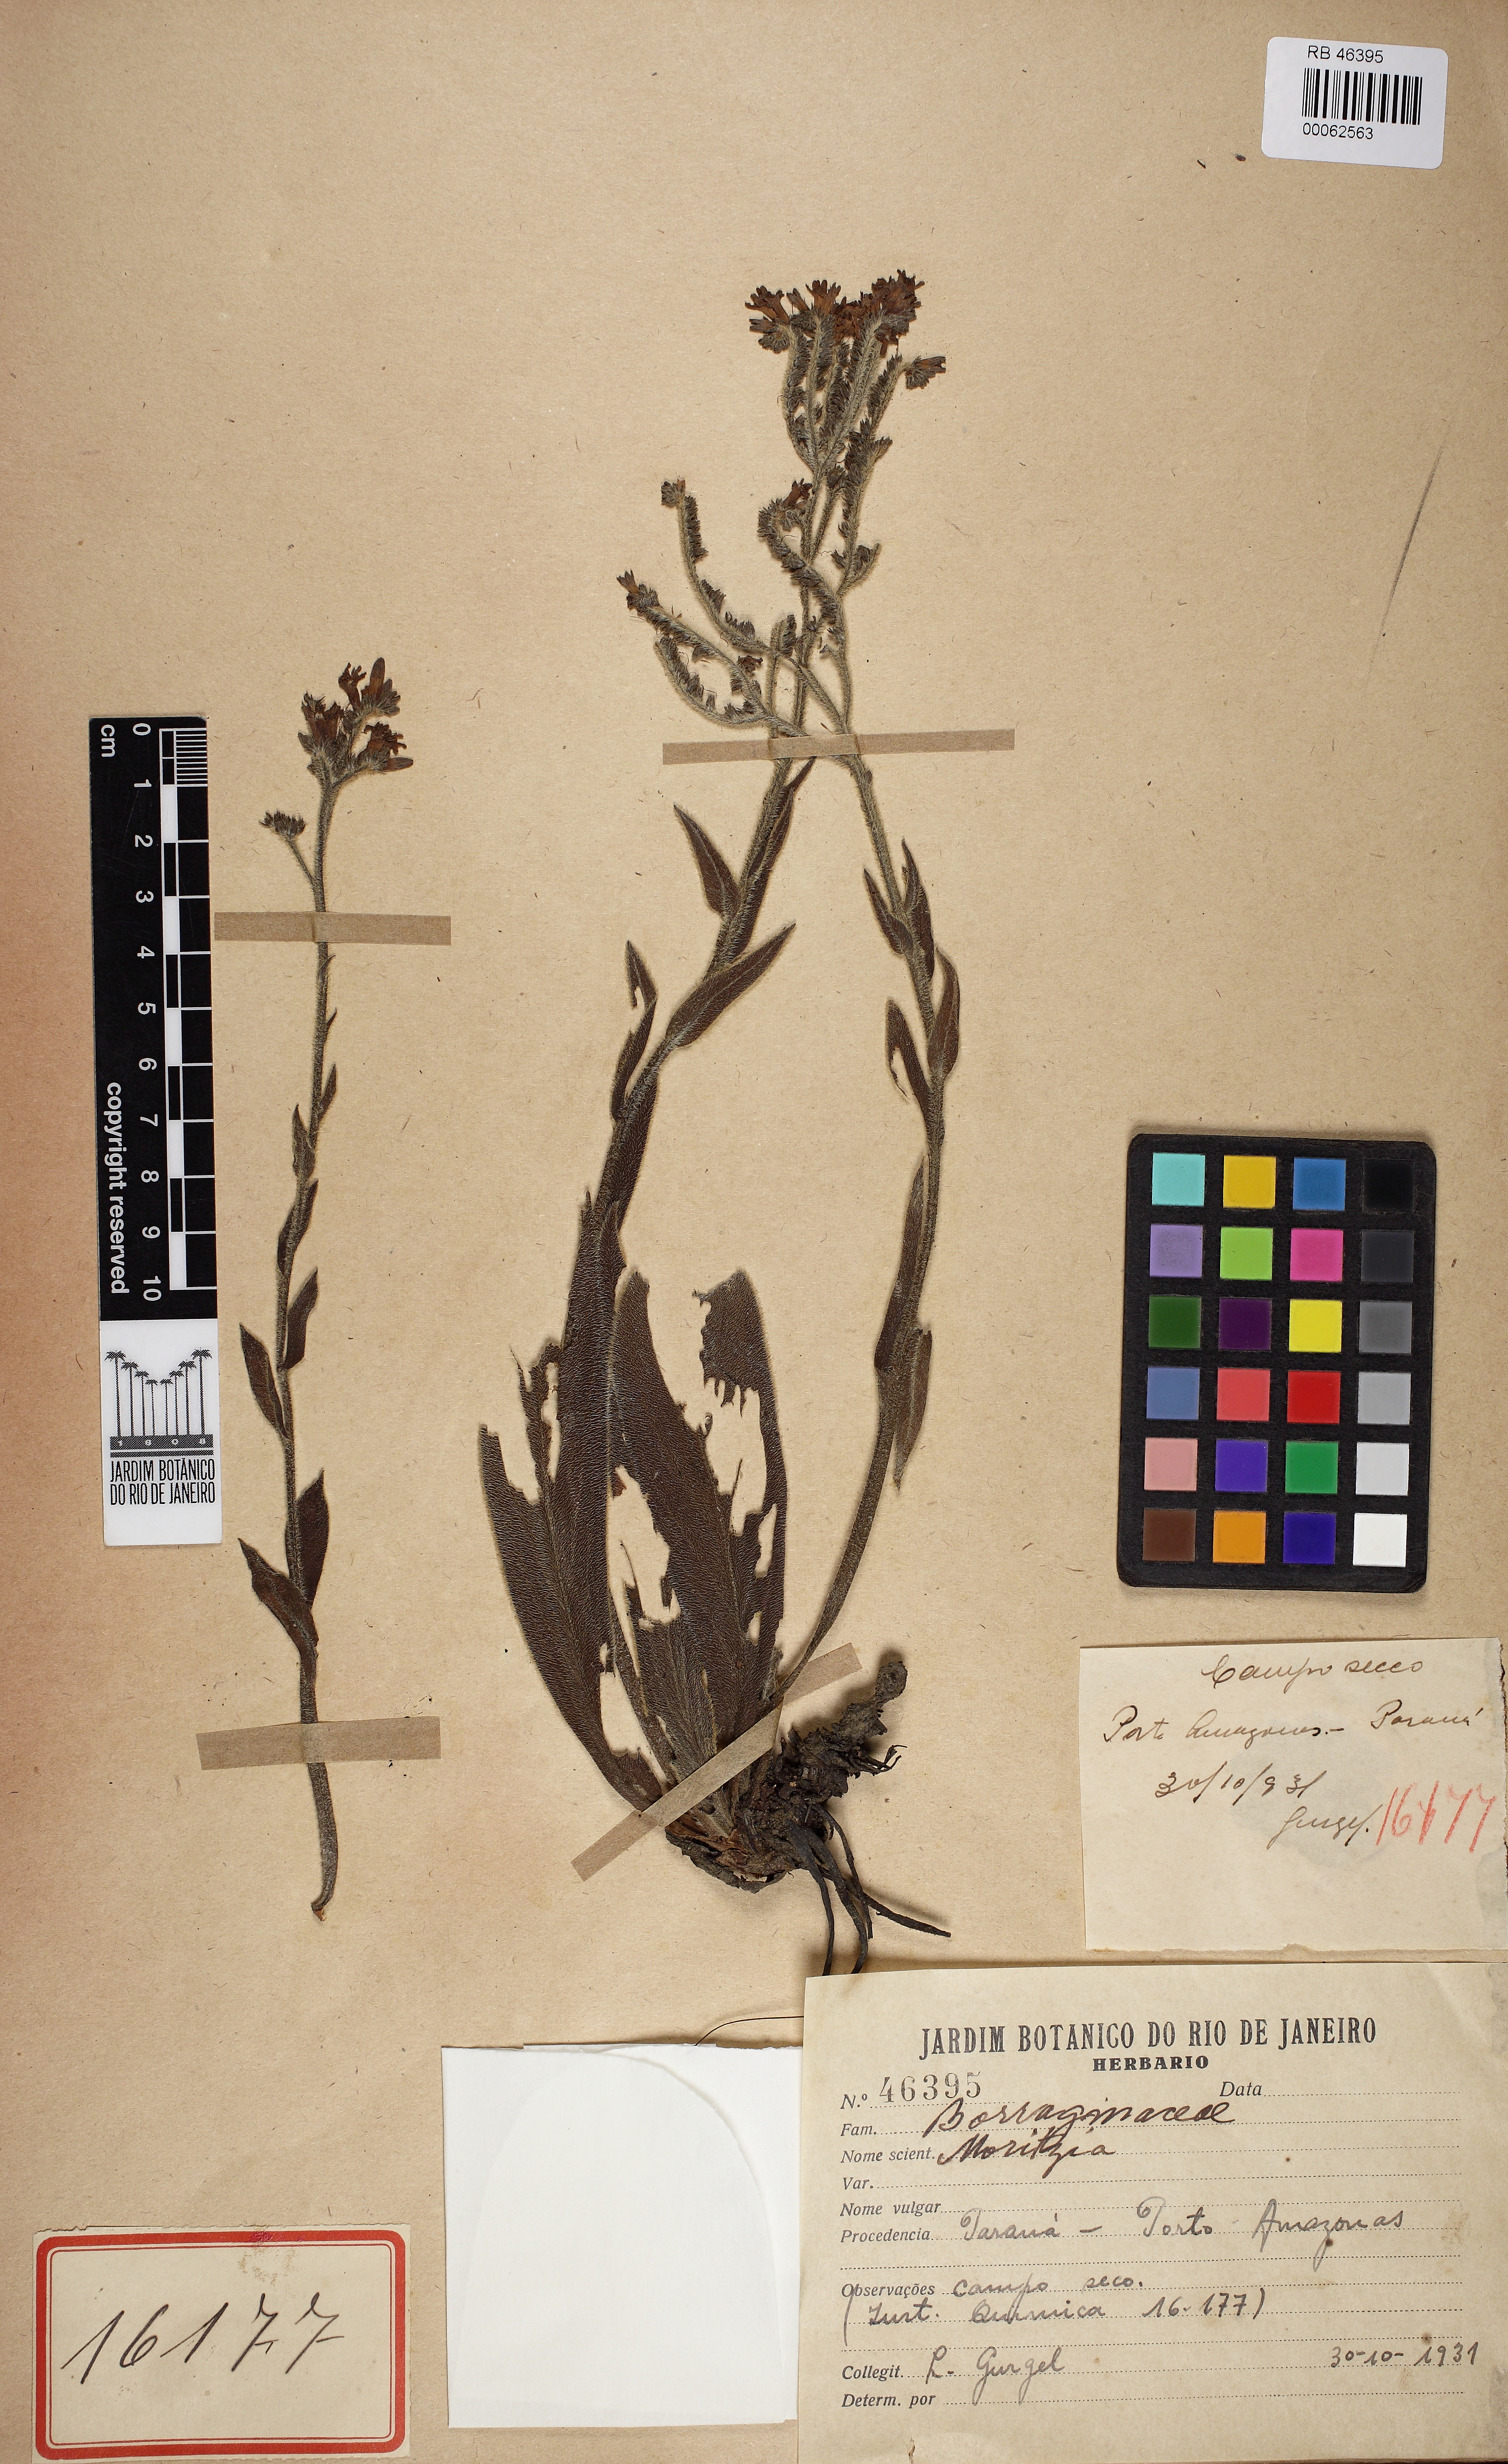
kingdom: Plantae
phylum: Tracheophyta
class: Magnoliopsida
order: Boraginales
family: Boraginaceae
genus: Moritzia
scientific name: Moritzia
